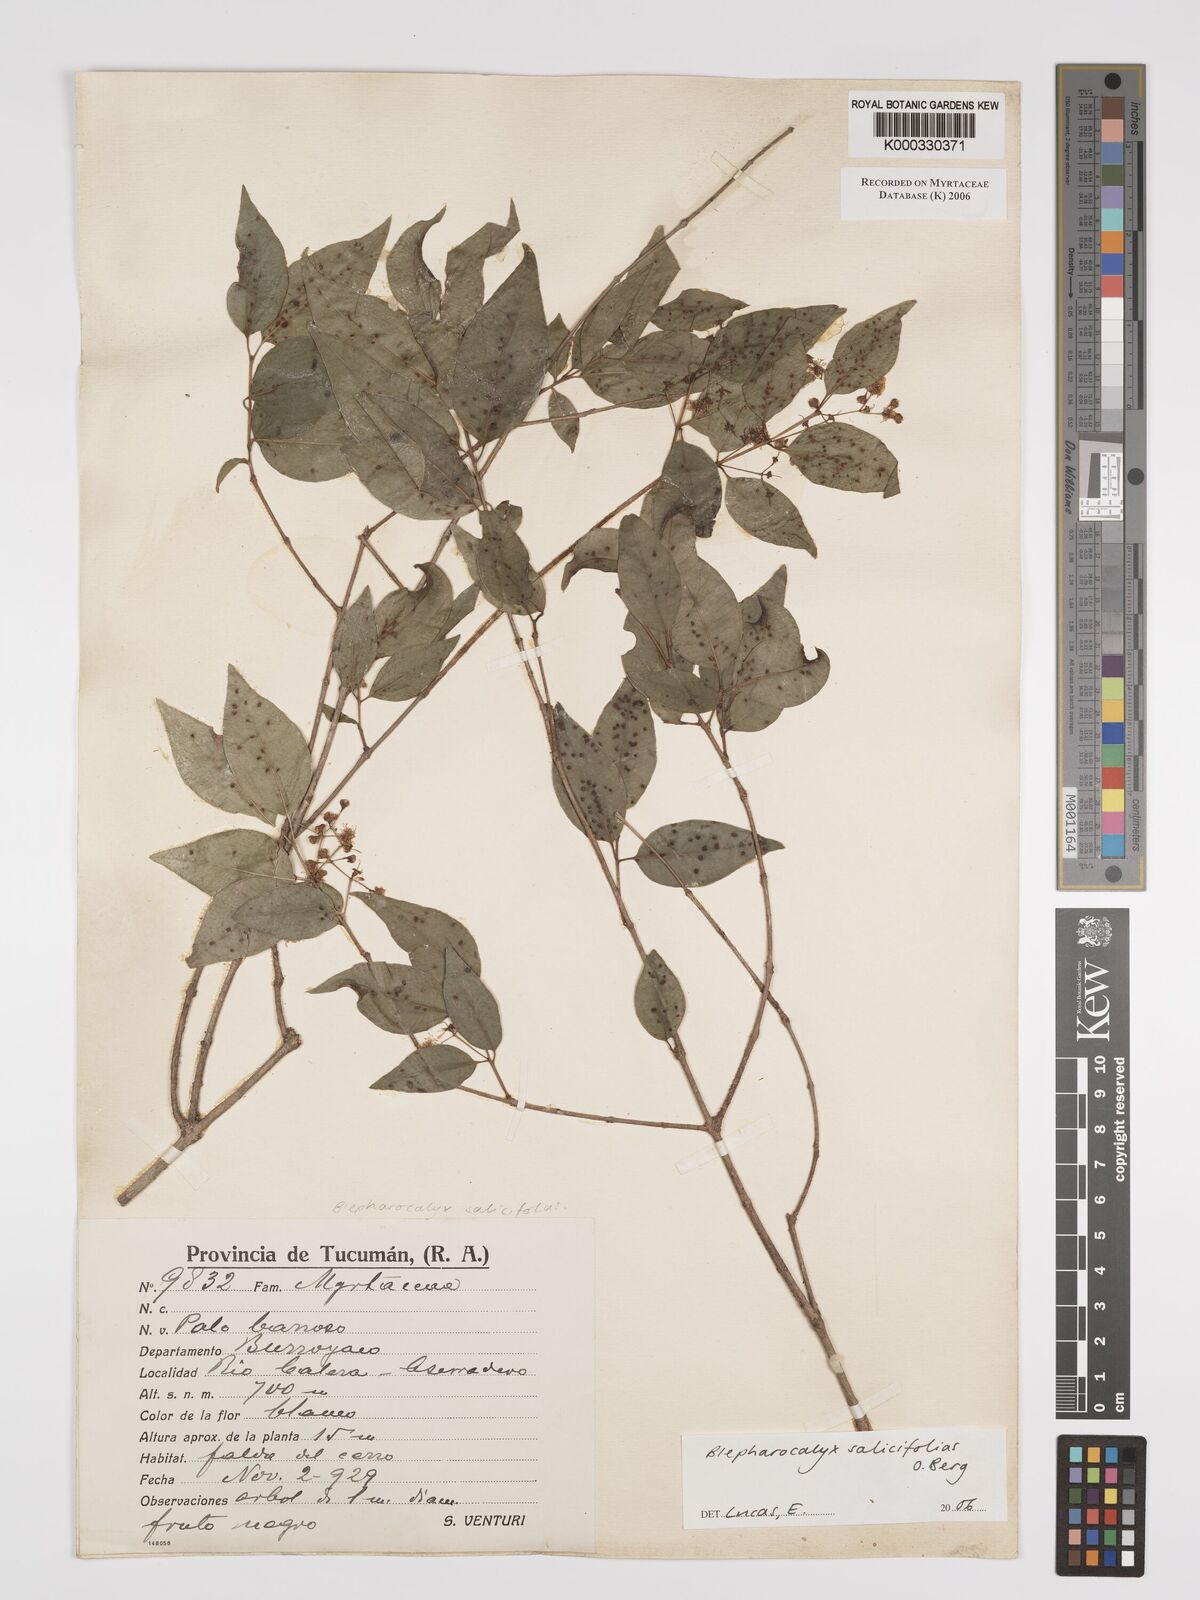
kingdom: Plantae
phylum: Tracheophyta
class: Magnoliopsida
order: Myrtales
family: Myrtaceae
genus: Blepharocalyx
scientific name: Blepharocalyx salicifolius
